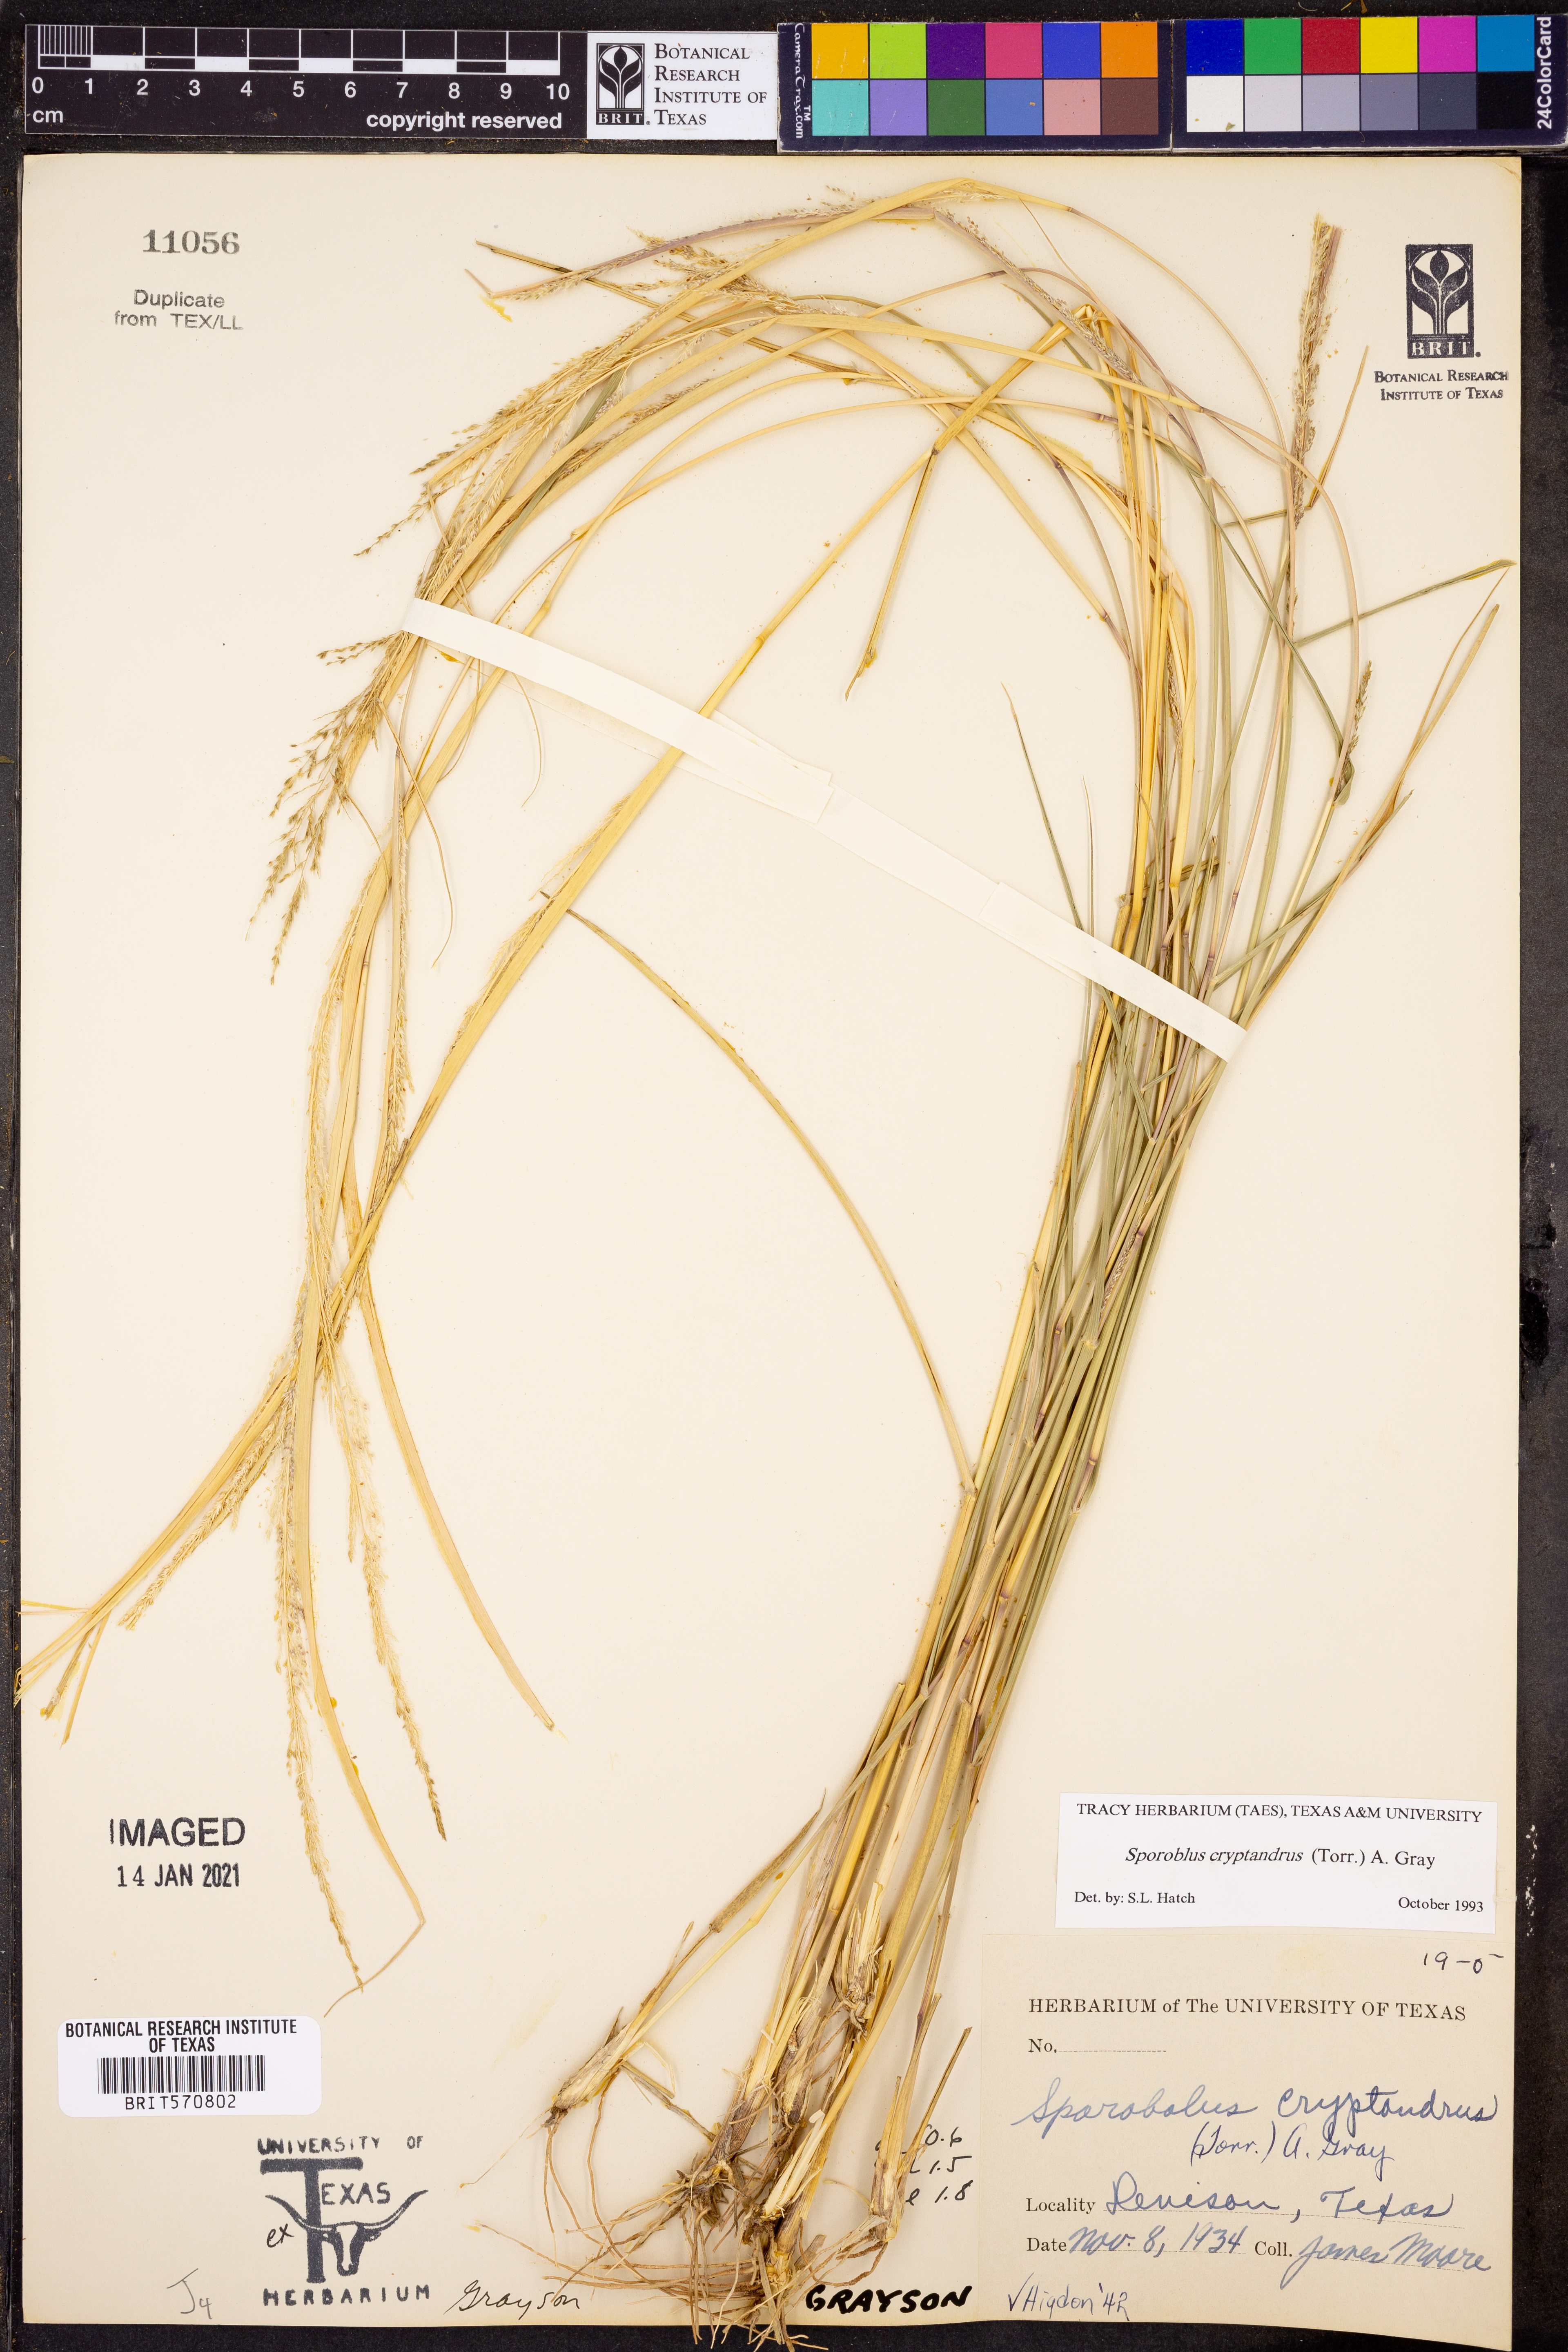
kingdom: Plantae
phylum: Tracheophyta
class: Liliopsida
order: Poales
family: Poaceae
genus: Sporobolus
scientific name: Sporobolus cryptandrus
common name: Sand dropseed
